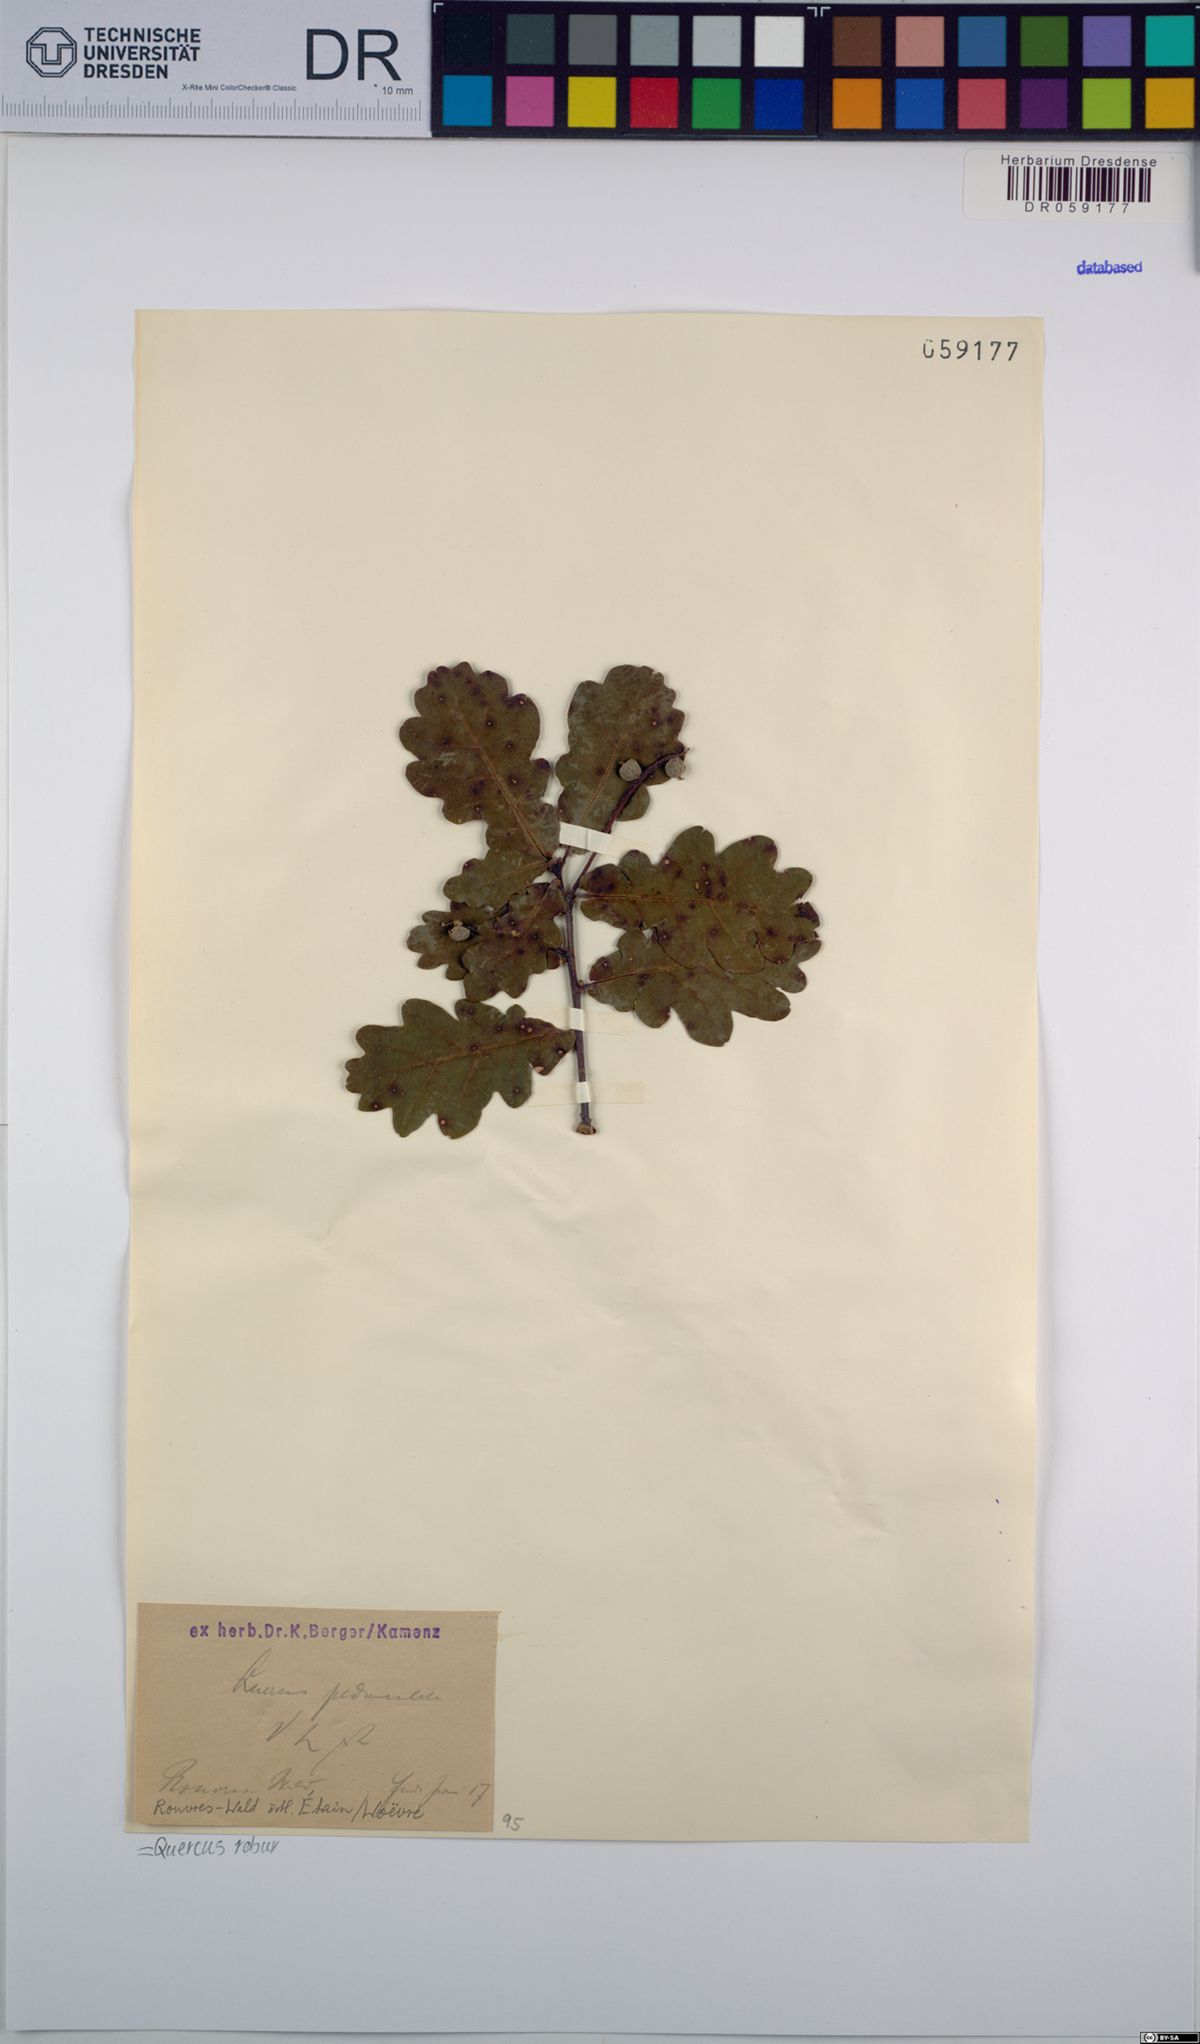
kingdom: Plantae
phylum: Tracheophyta
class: Magnoliopsida
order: Fagales
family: Fagaceae
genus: Quercus
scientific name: Quercus robur
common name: Pedunculate oak
